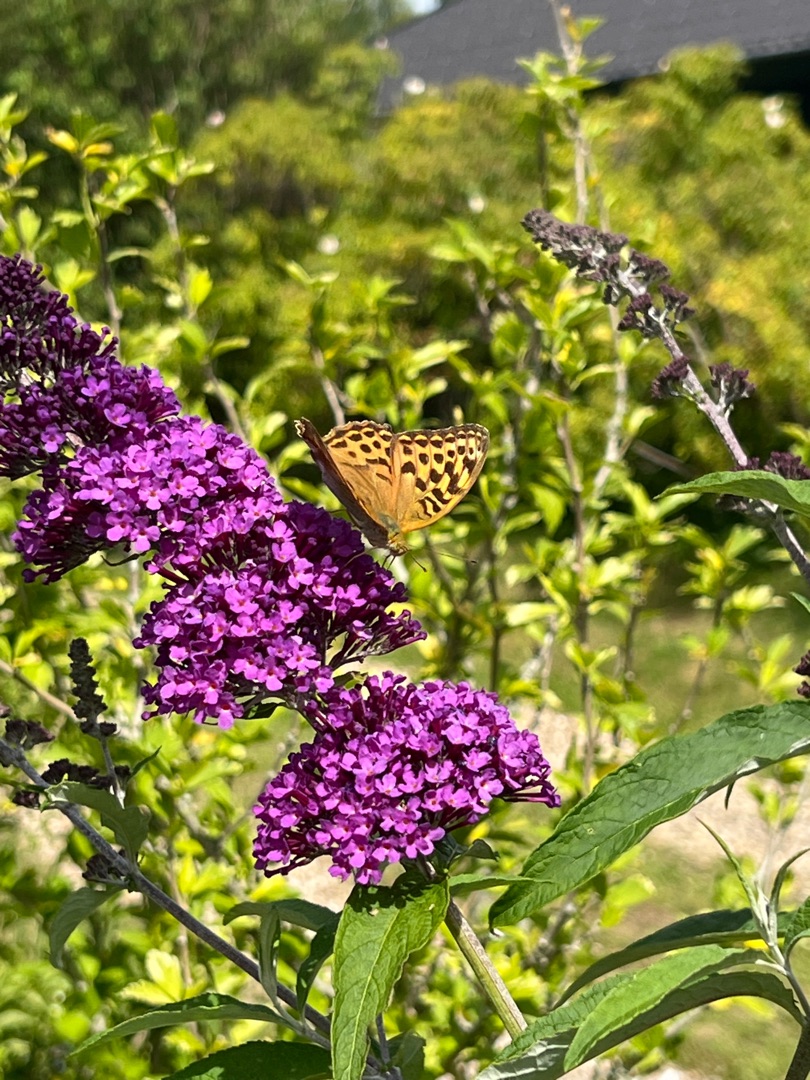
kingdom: Animalia
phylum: Arthropoda
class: Insecta
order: Lepidoptera
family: Nymphalidae
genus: Argynnis
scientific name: Argynnis paphia
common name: Kejserkåbe
